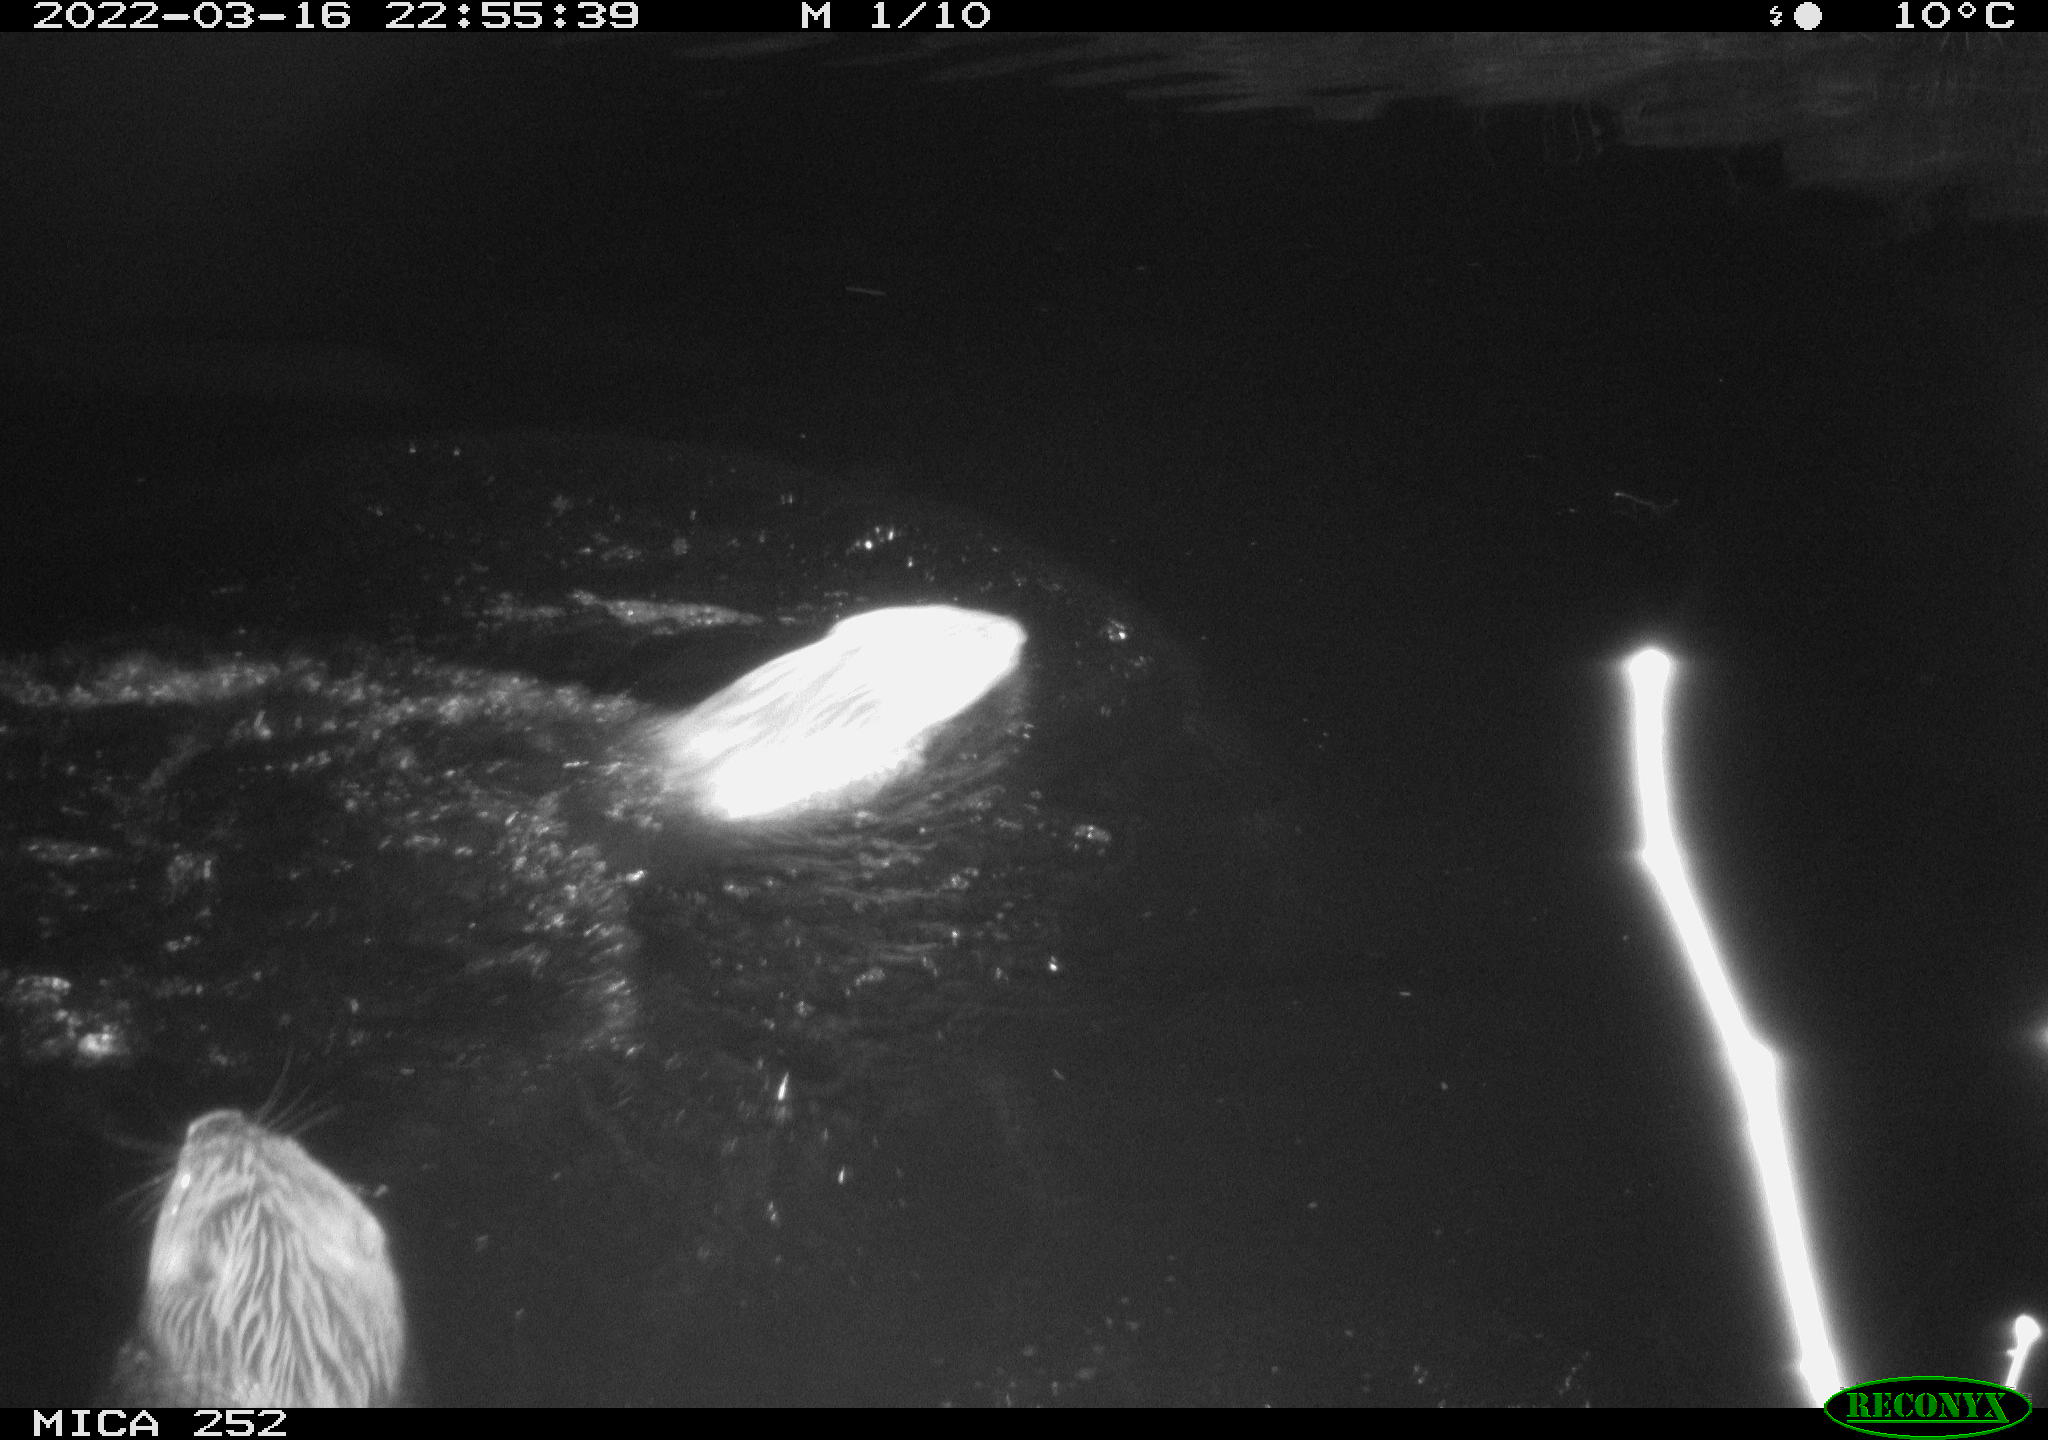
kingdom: Animalia
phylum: Chordata
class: Mammalia
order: Rodentia
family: Castoridae
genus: Castor
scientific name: Castor fiber
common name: Eurasian beaver
